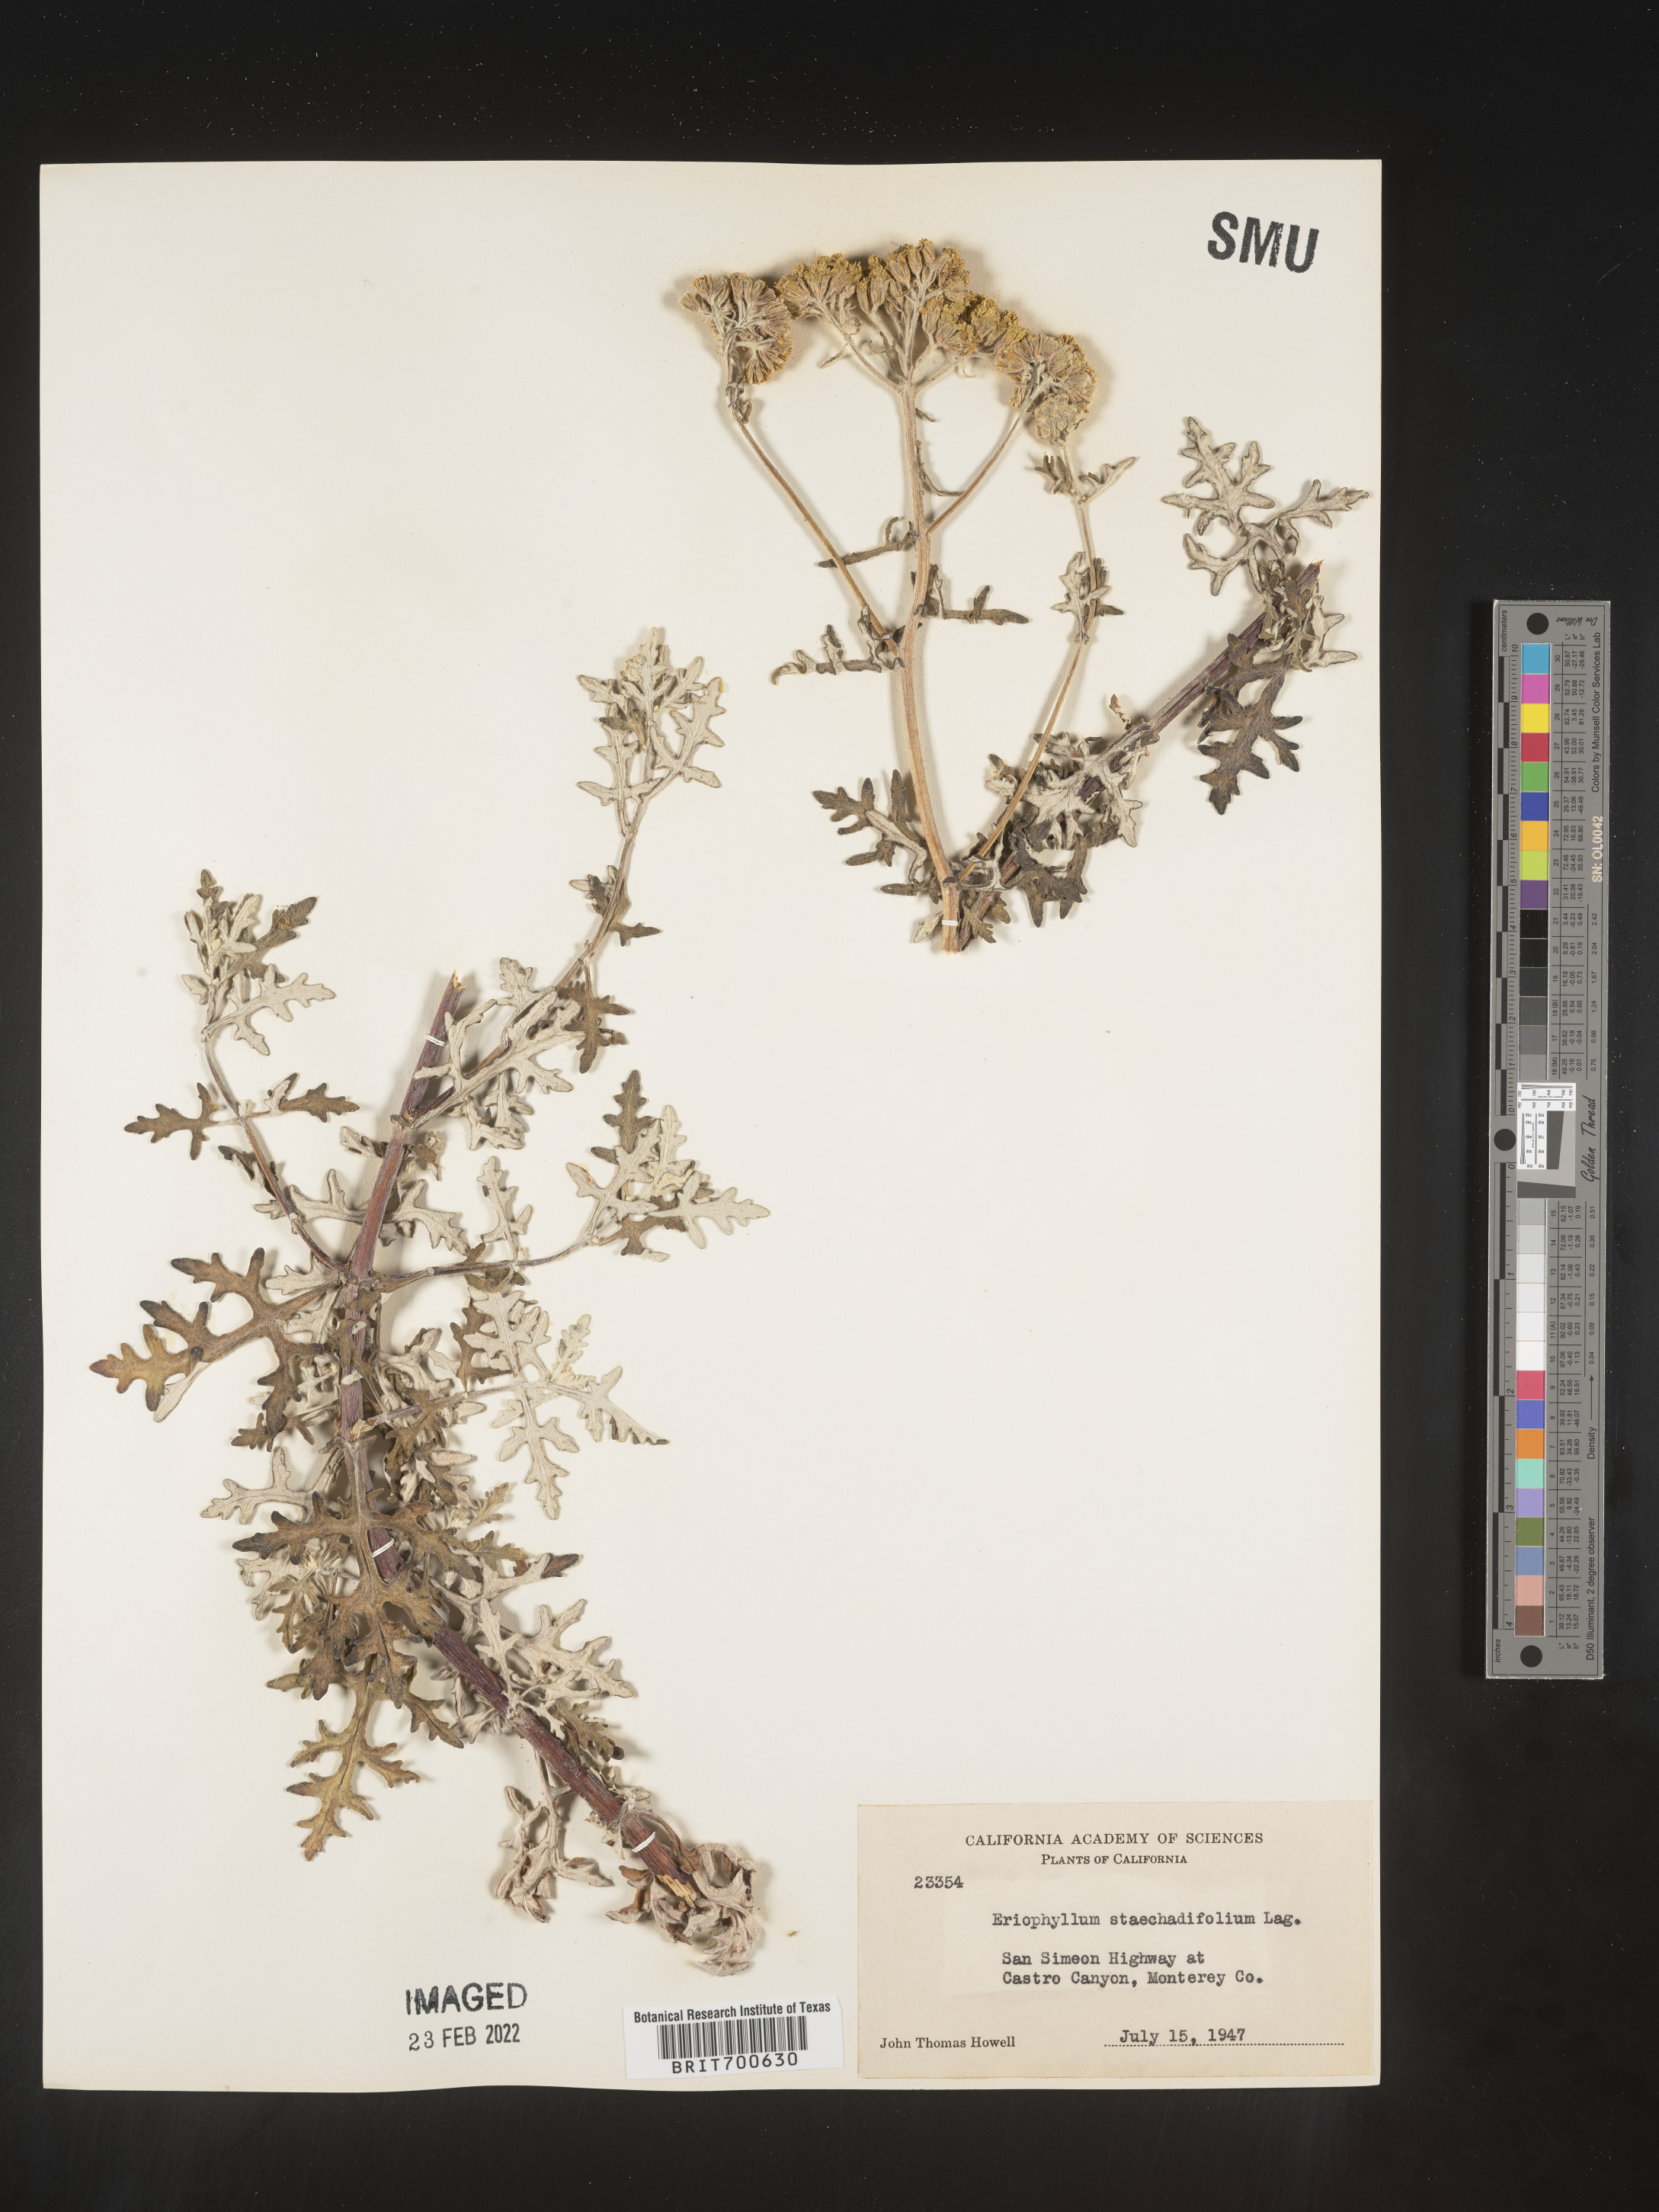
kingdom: Plantae
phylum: Tracheophyta
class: Magnoliopsida
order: Asterales
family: Asteraceae
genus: Eriophyllum
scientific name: Eriophyllum staechadifolium
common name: Lizardtail
